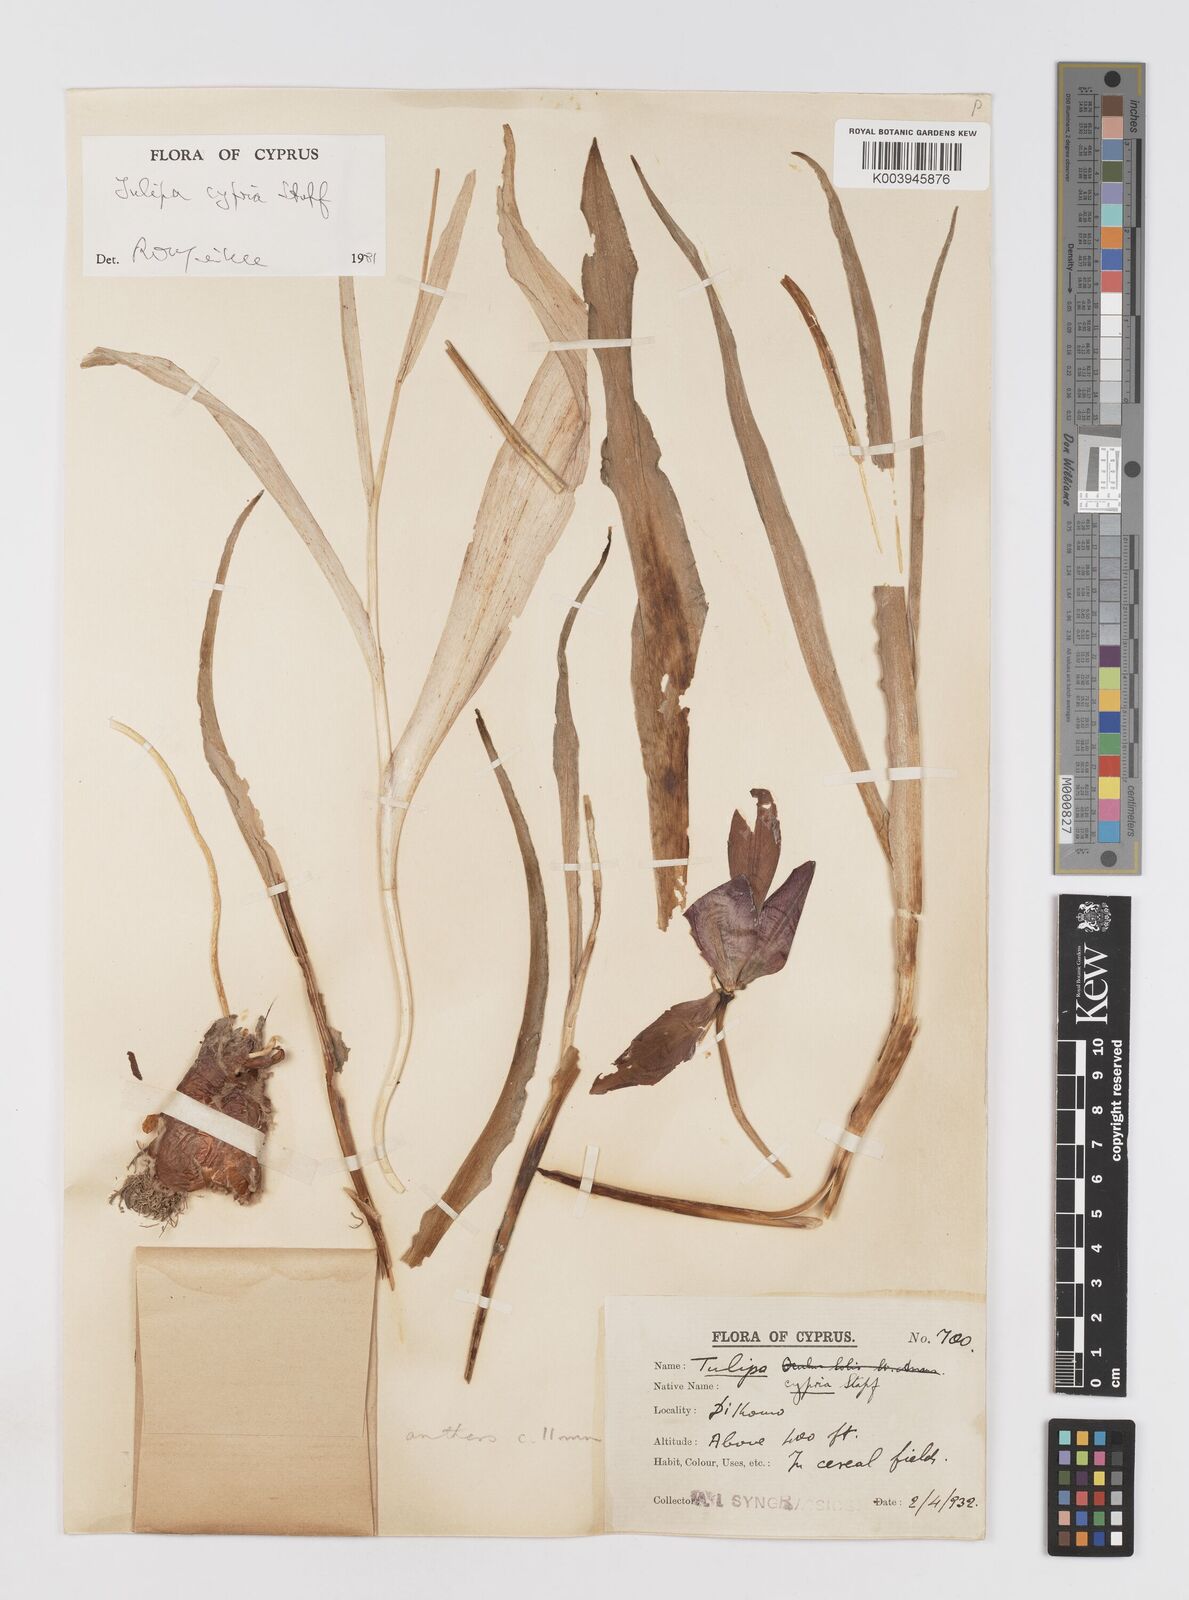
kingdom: Plantae
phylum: Tracheophyta
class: Liliopsida
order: Liliales
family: Liliaceae
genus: Tulipa
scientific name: Tulipa cypria
